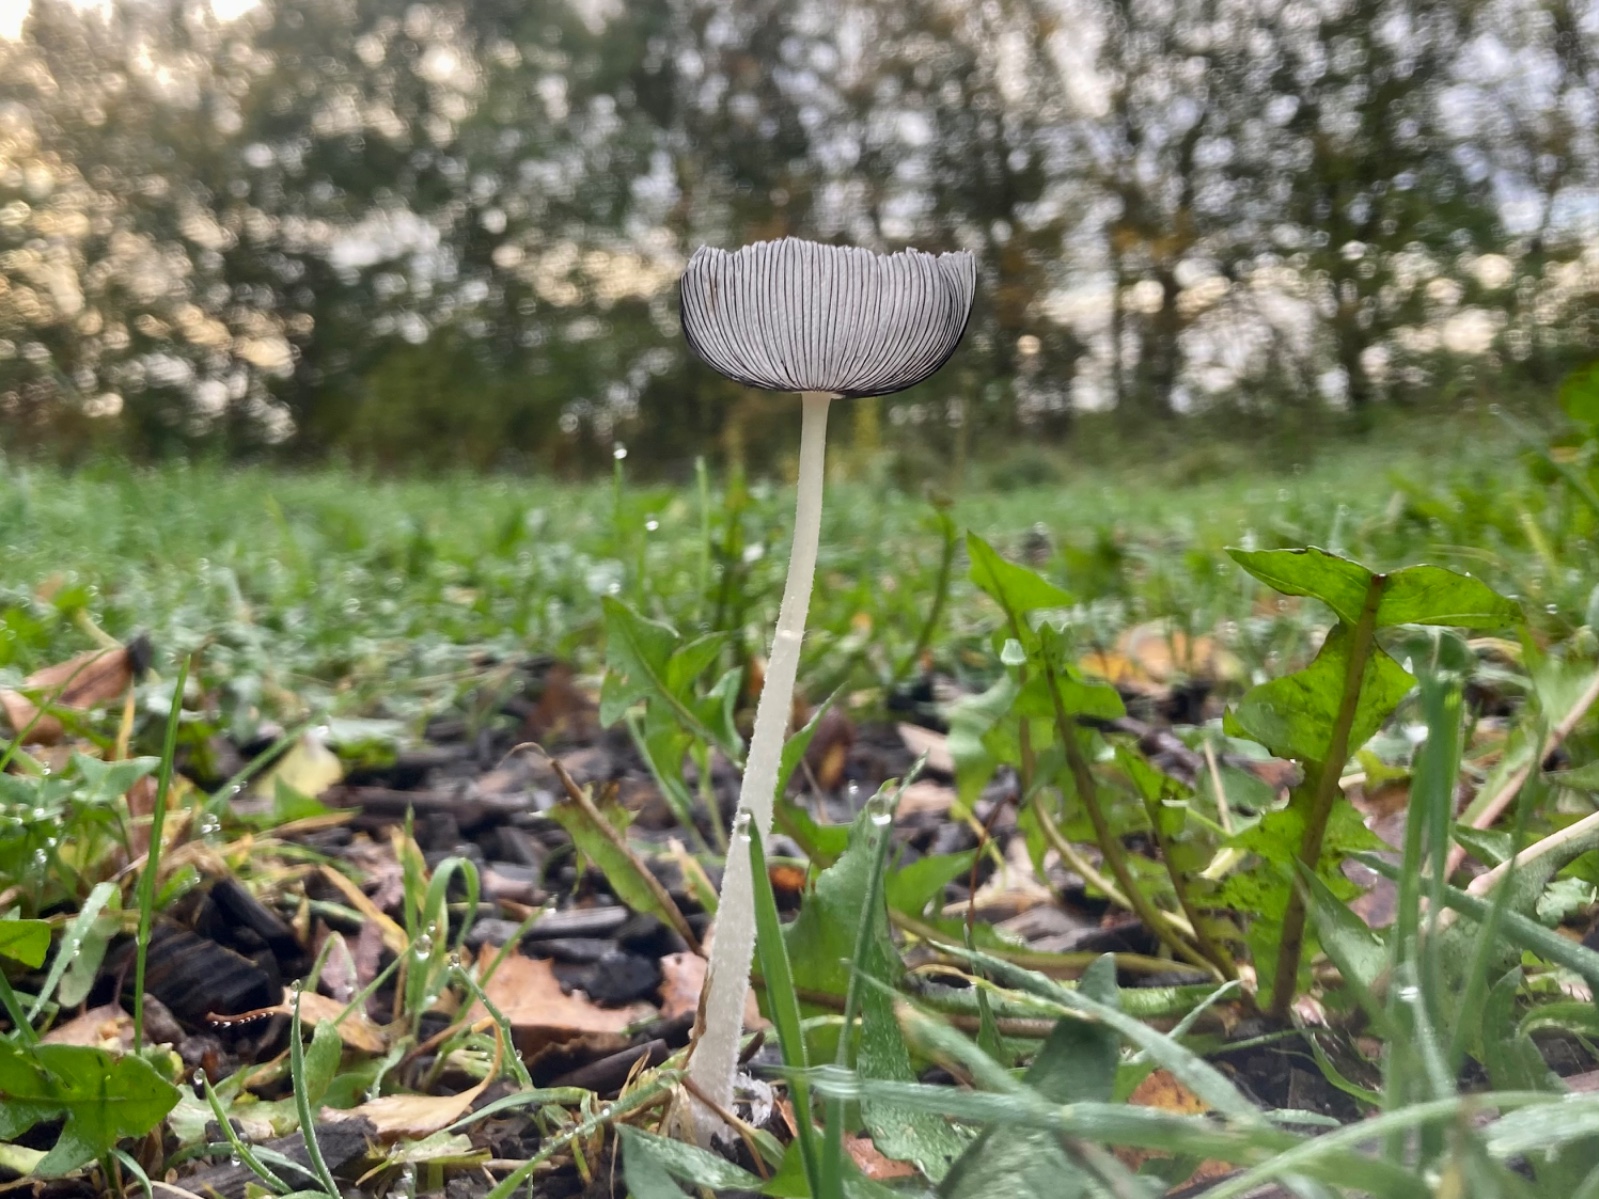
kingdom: Fungi
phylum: Basidiomycota
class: Agaricomycetes
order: Agaricales
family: Psathyrellaceae
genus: Coprinopsis
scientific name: Coprinopsis lagopus
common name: dunstokket blækhat
